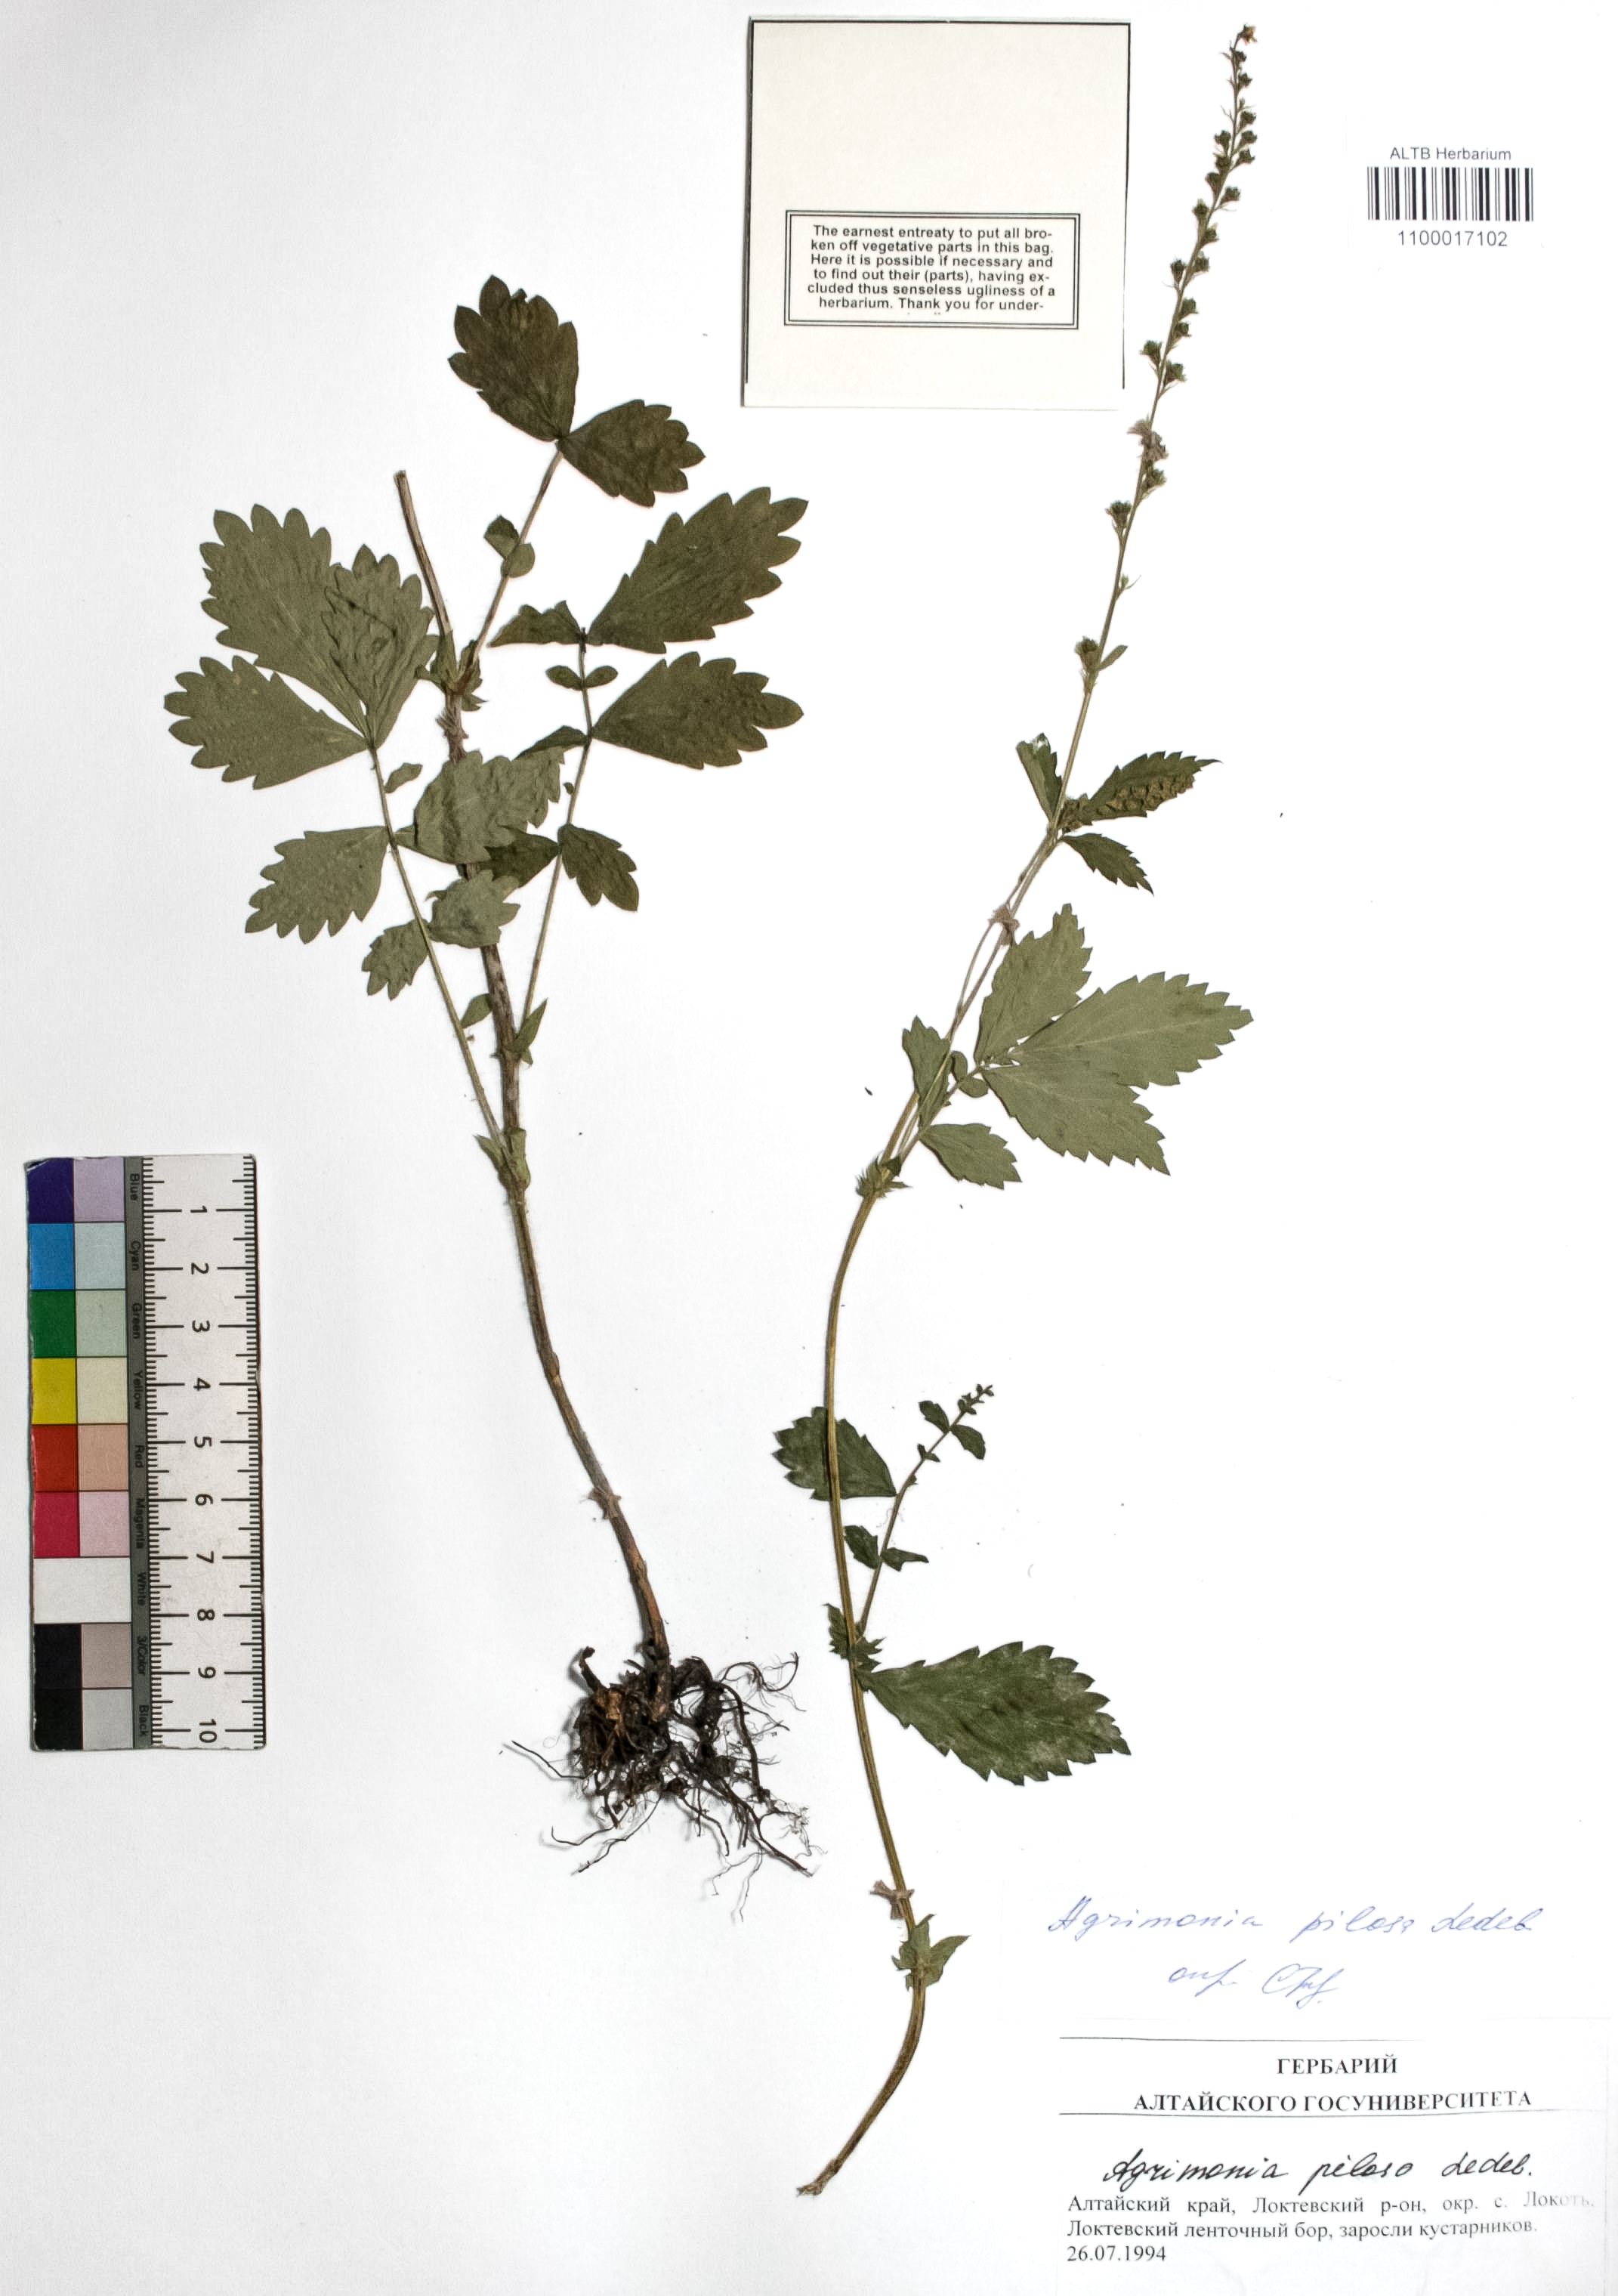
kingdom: Plantae
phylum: Tracheophyta
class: Magnoliopsida
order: Rosales
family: Rosaceae
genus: Agrimonia
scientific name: Agrimonia pilosa
